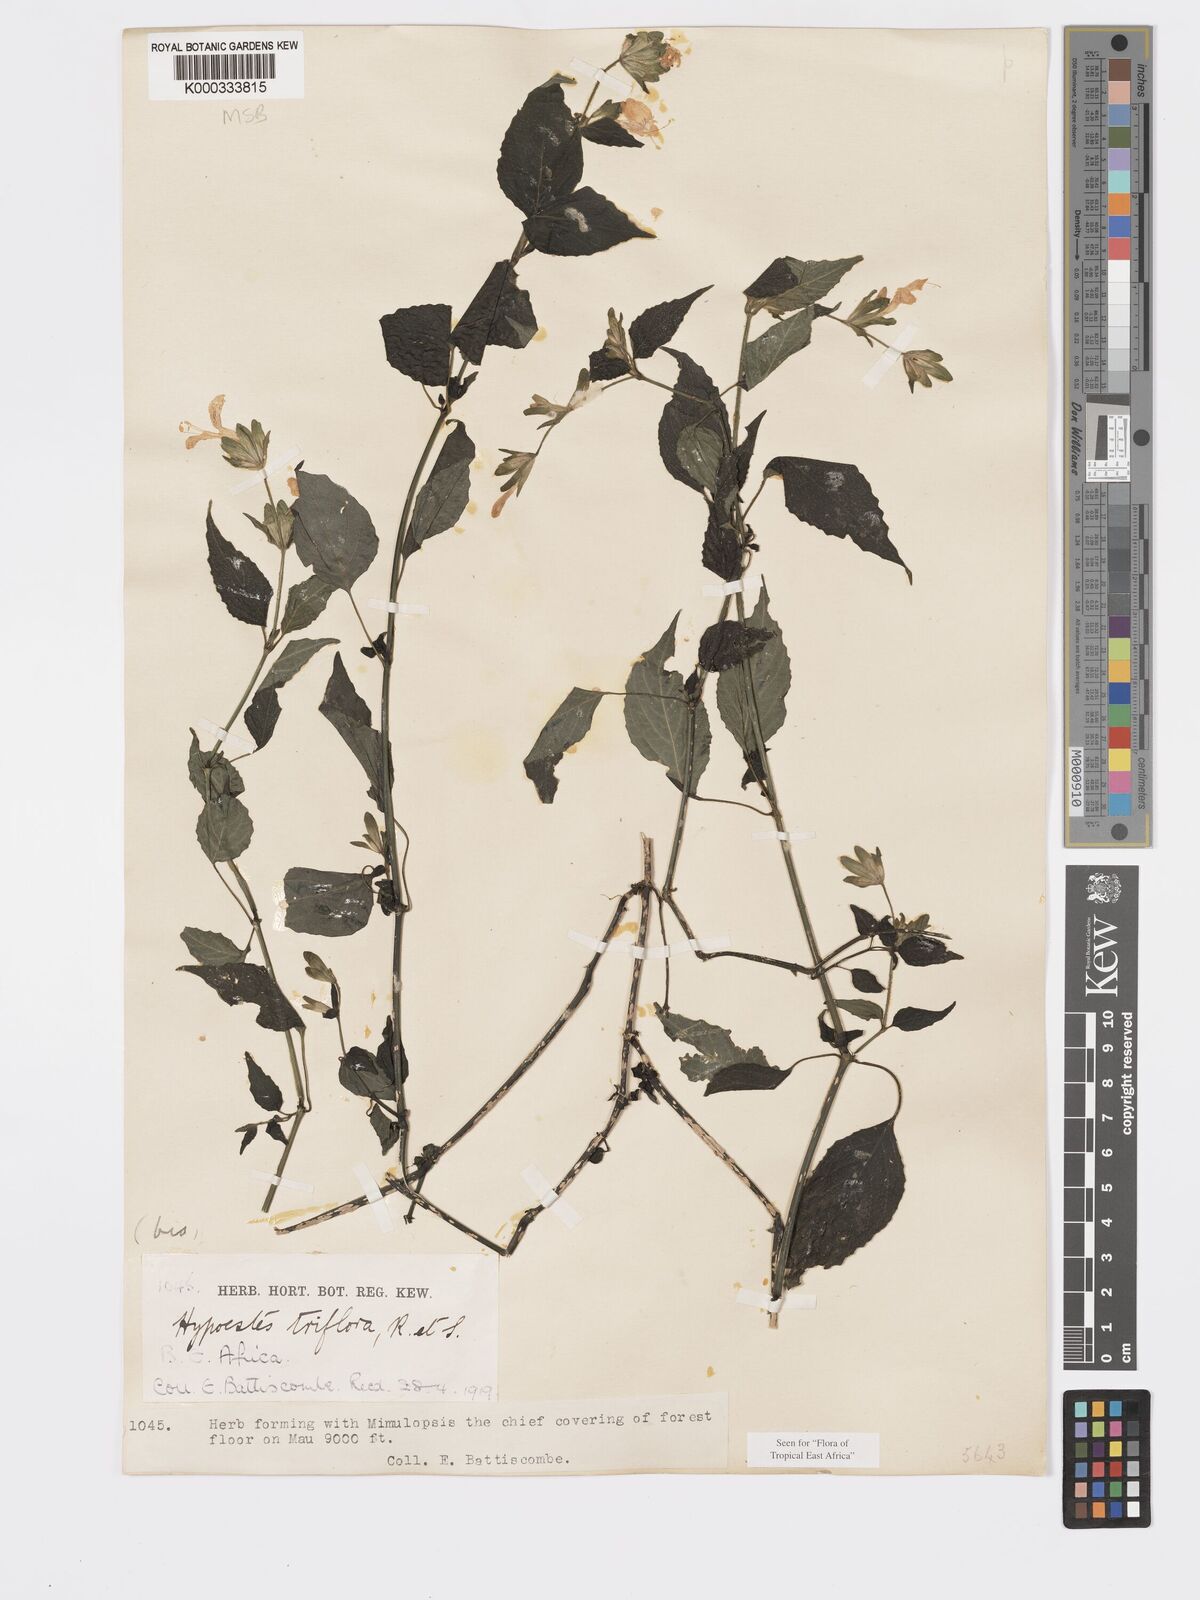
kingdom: Plantae
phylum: Tracheophyta
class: Magnoliopsida
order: Lamiales
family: Acanthaceae
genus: Hypoestes
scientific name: Hypoestes triflora
